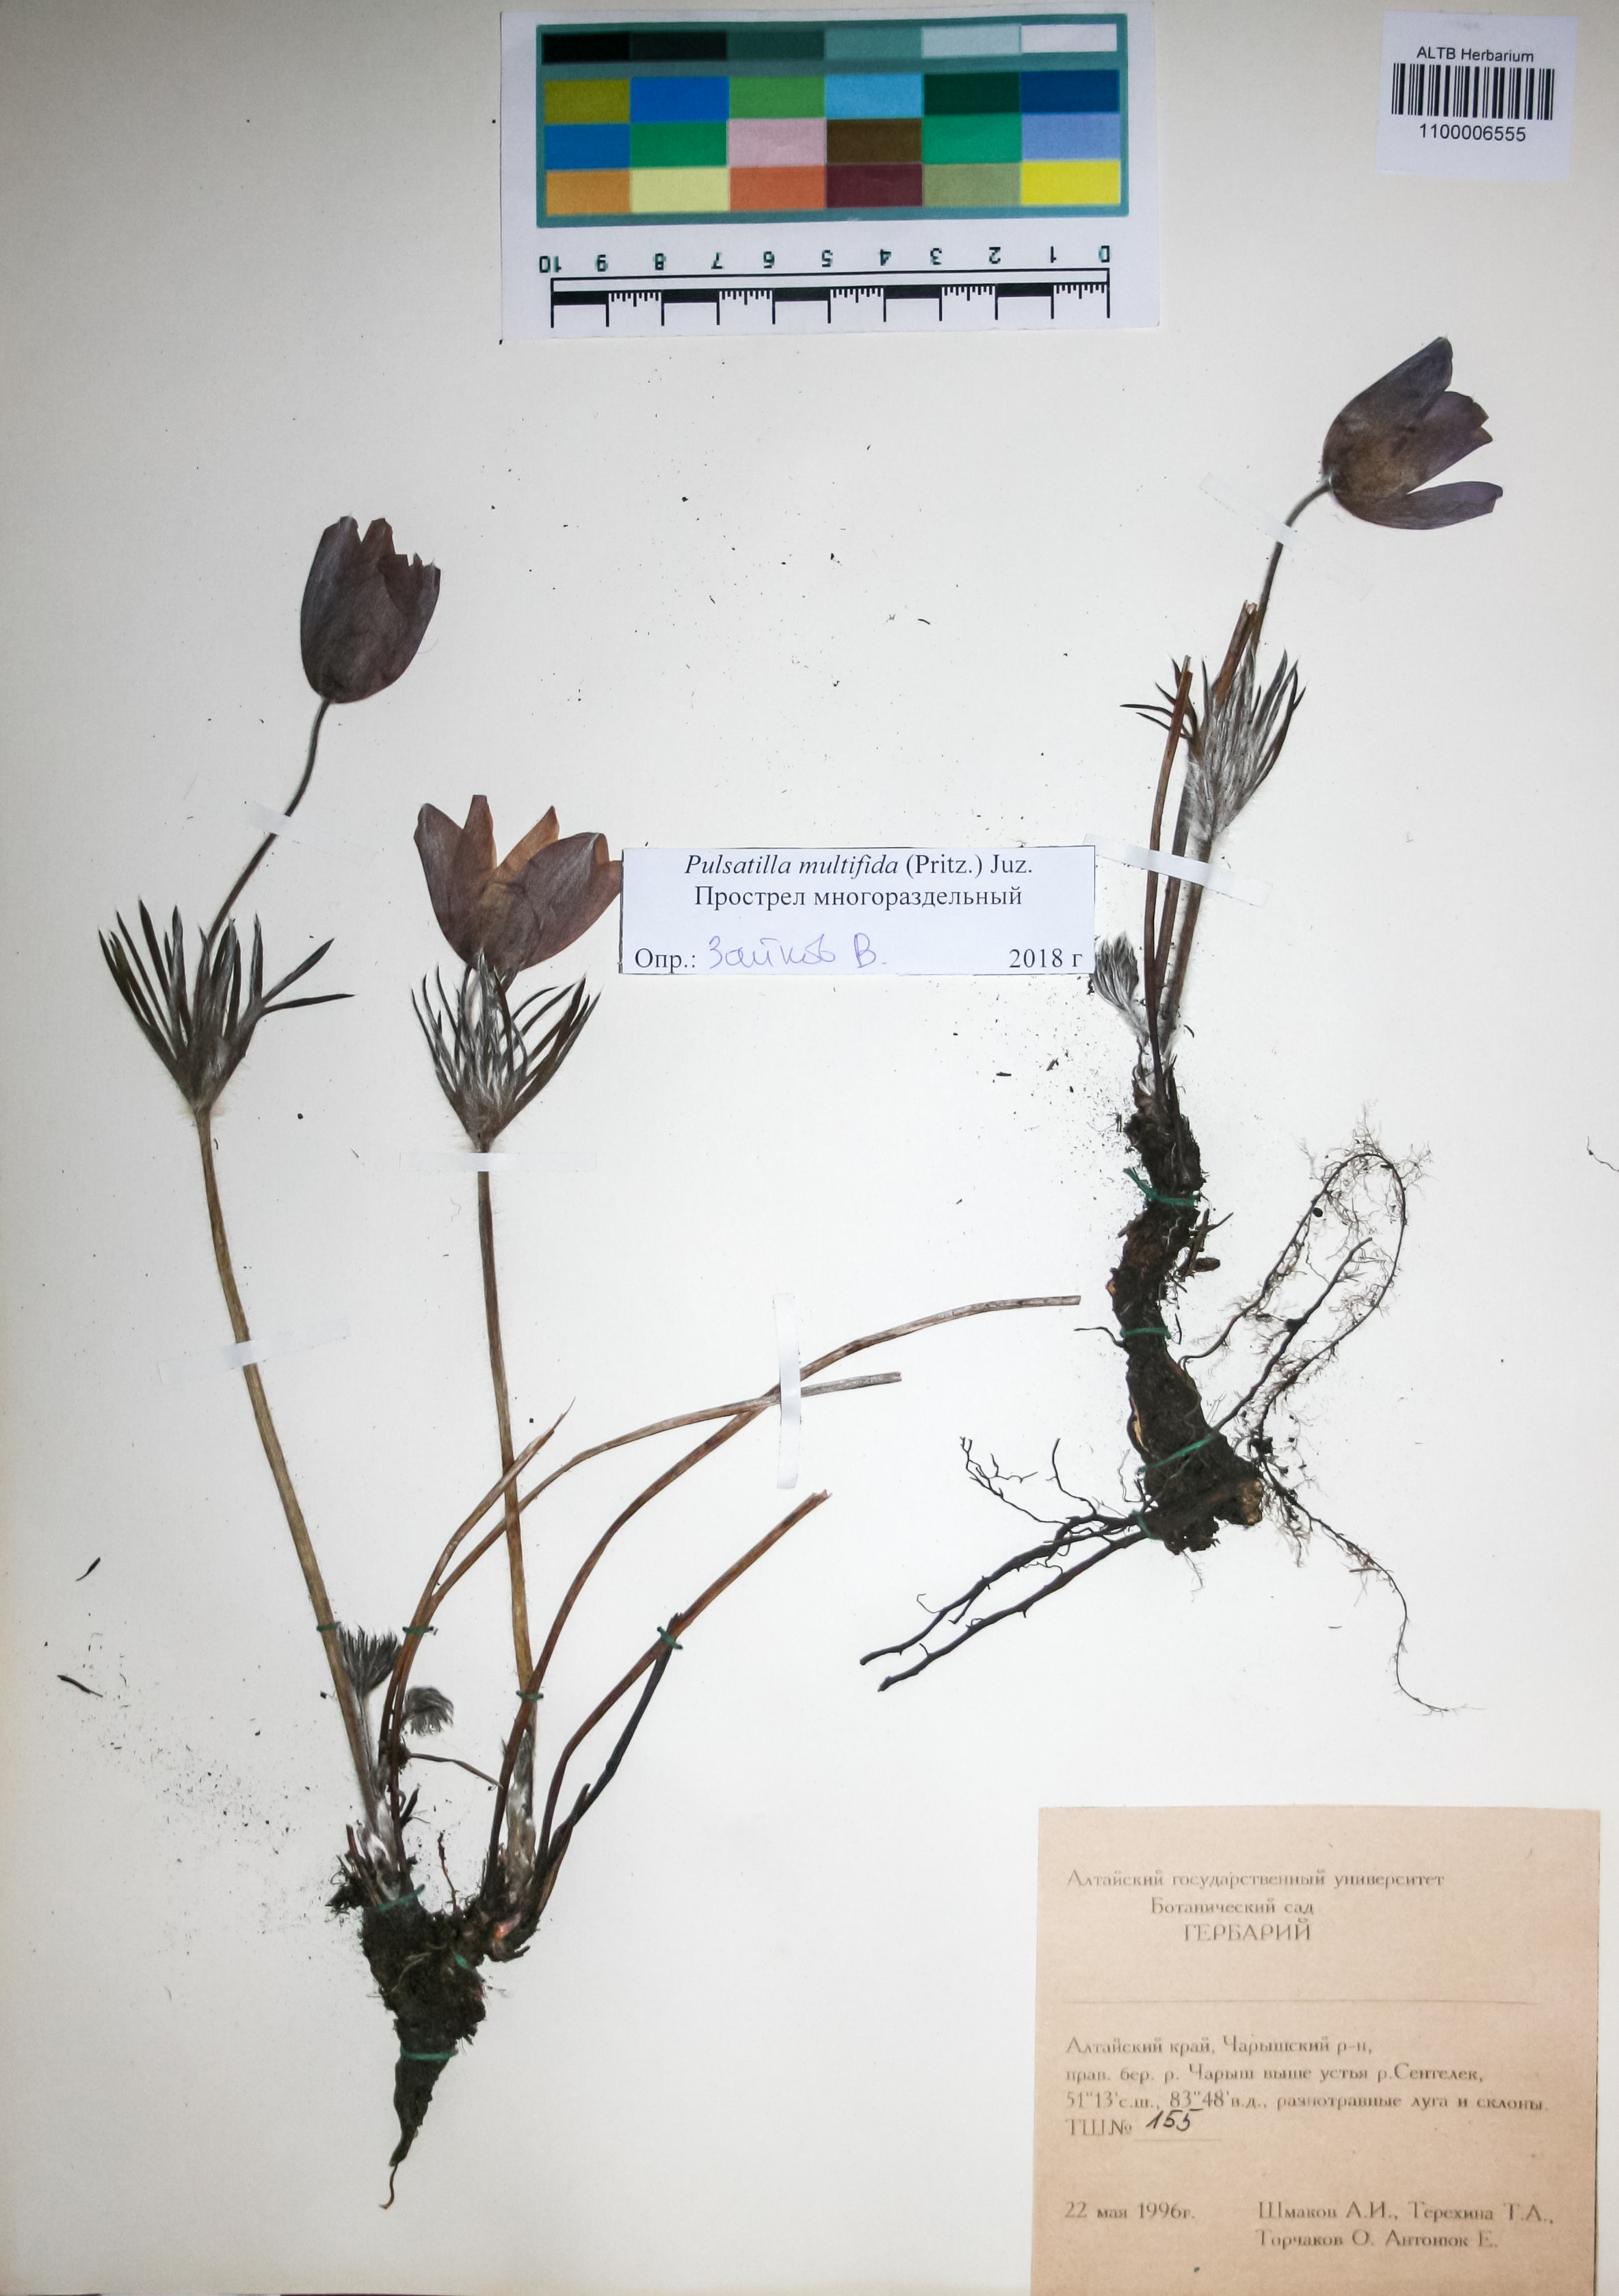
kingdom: Plantae
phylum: Tracheophyta
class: Magnoliopsida
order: Ranunculales
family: Ranunculaceae
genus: Pulsatilla
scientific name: Pulsatilla patens
